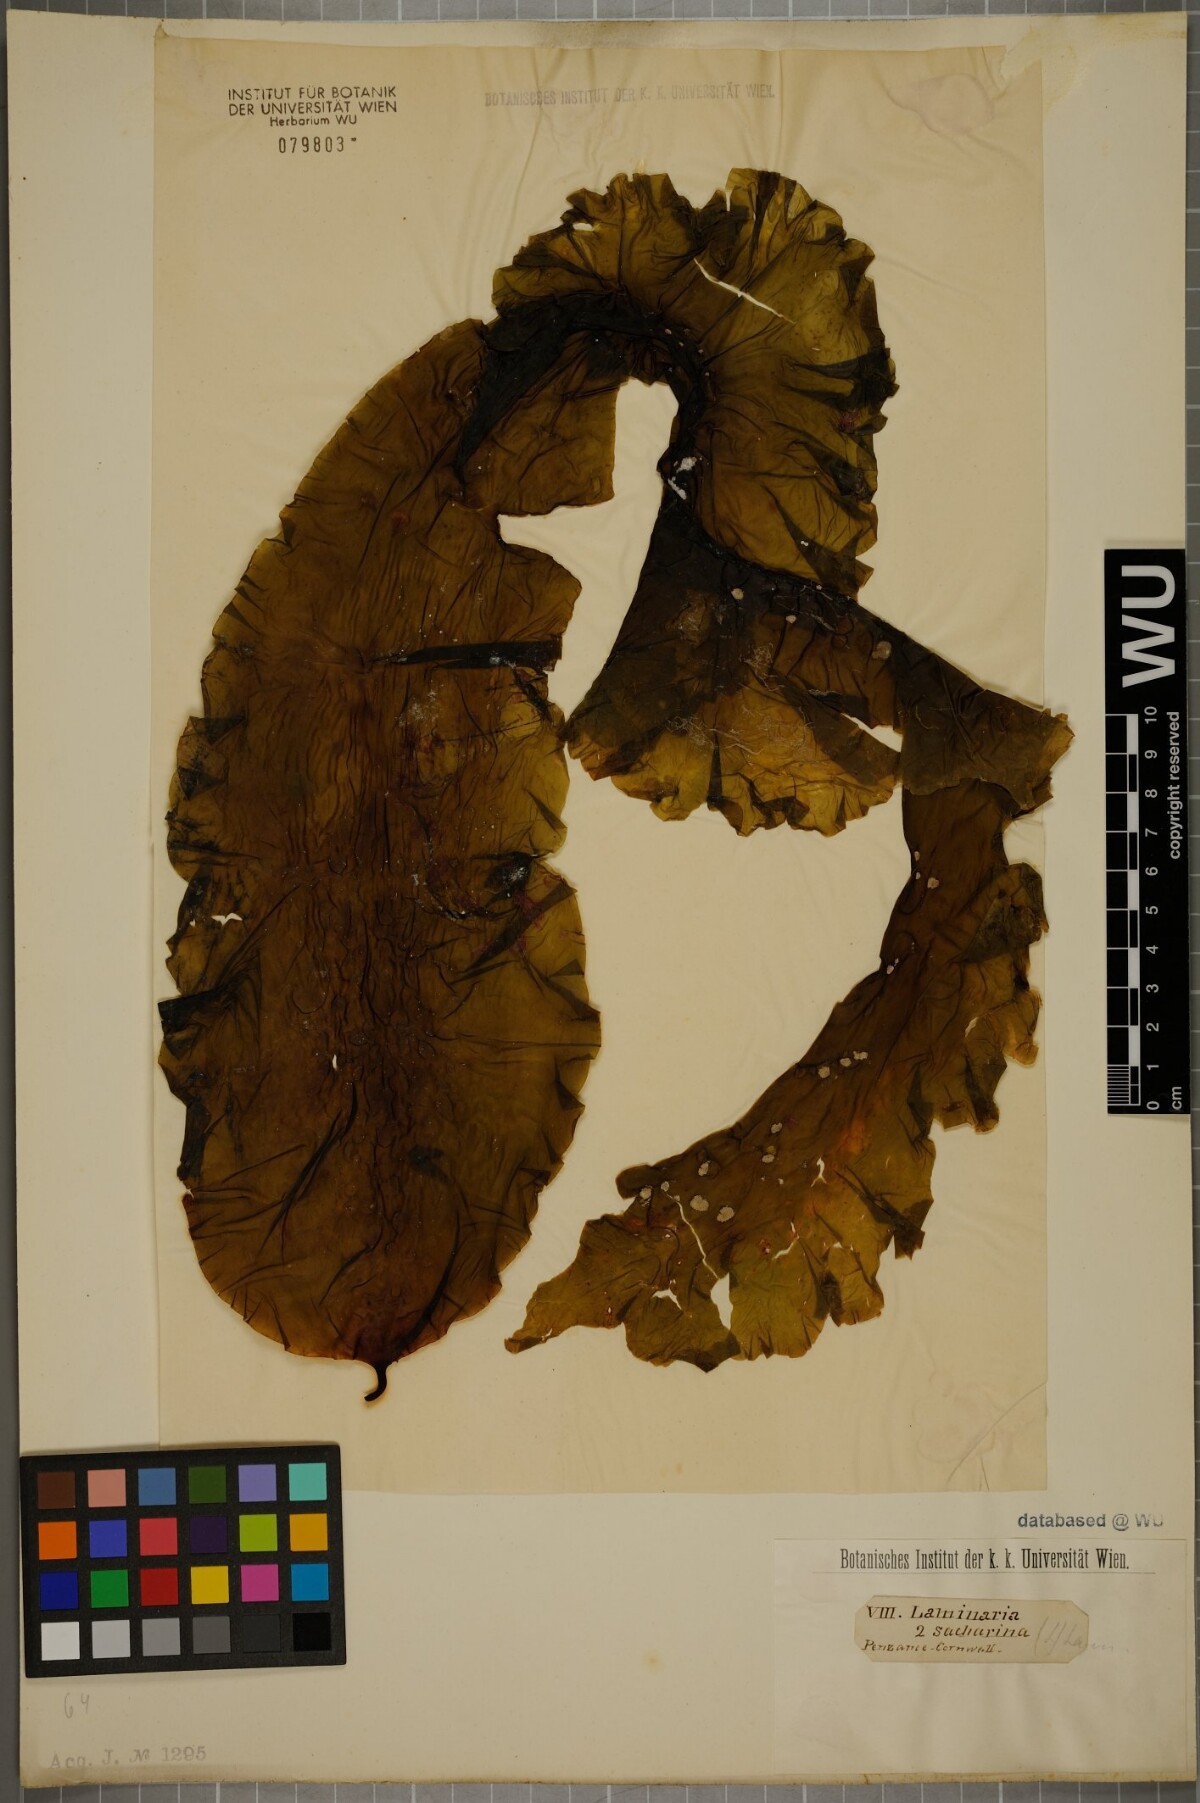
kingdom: Chromista
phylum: Ochrophyta
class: Phaeophyceae
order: Laminariales
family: Laminariaceae
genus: Saccharina
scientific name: Saccharina latissima
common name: Poor man's weather glass
